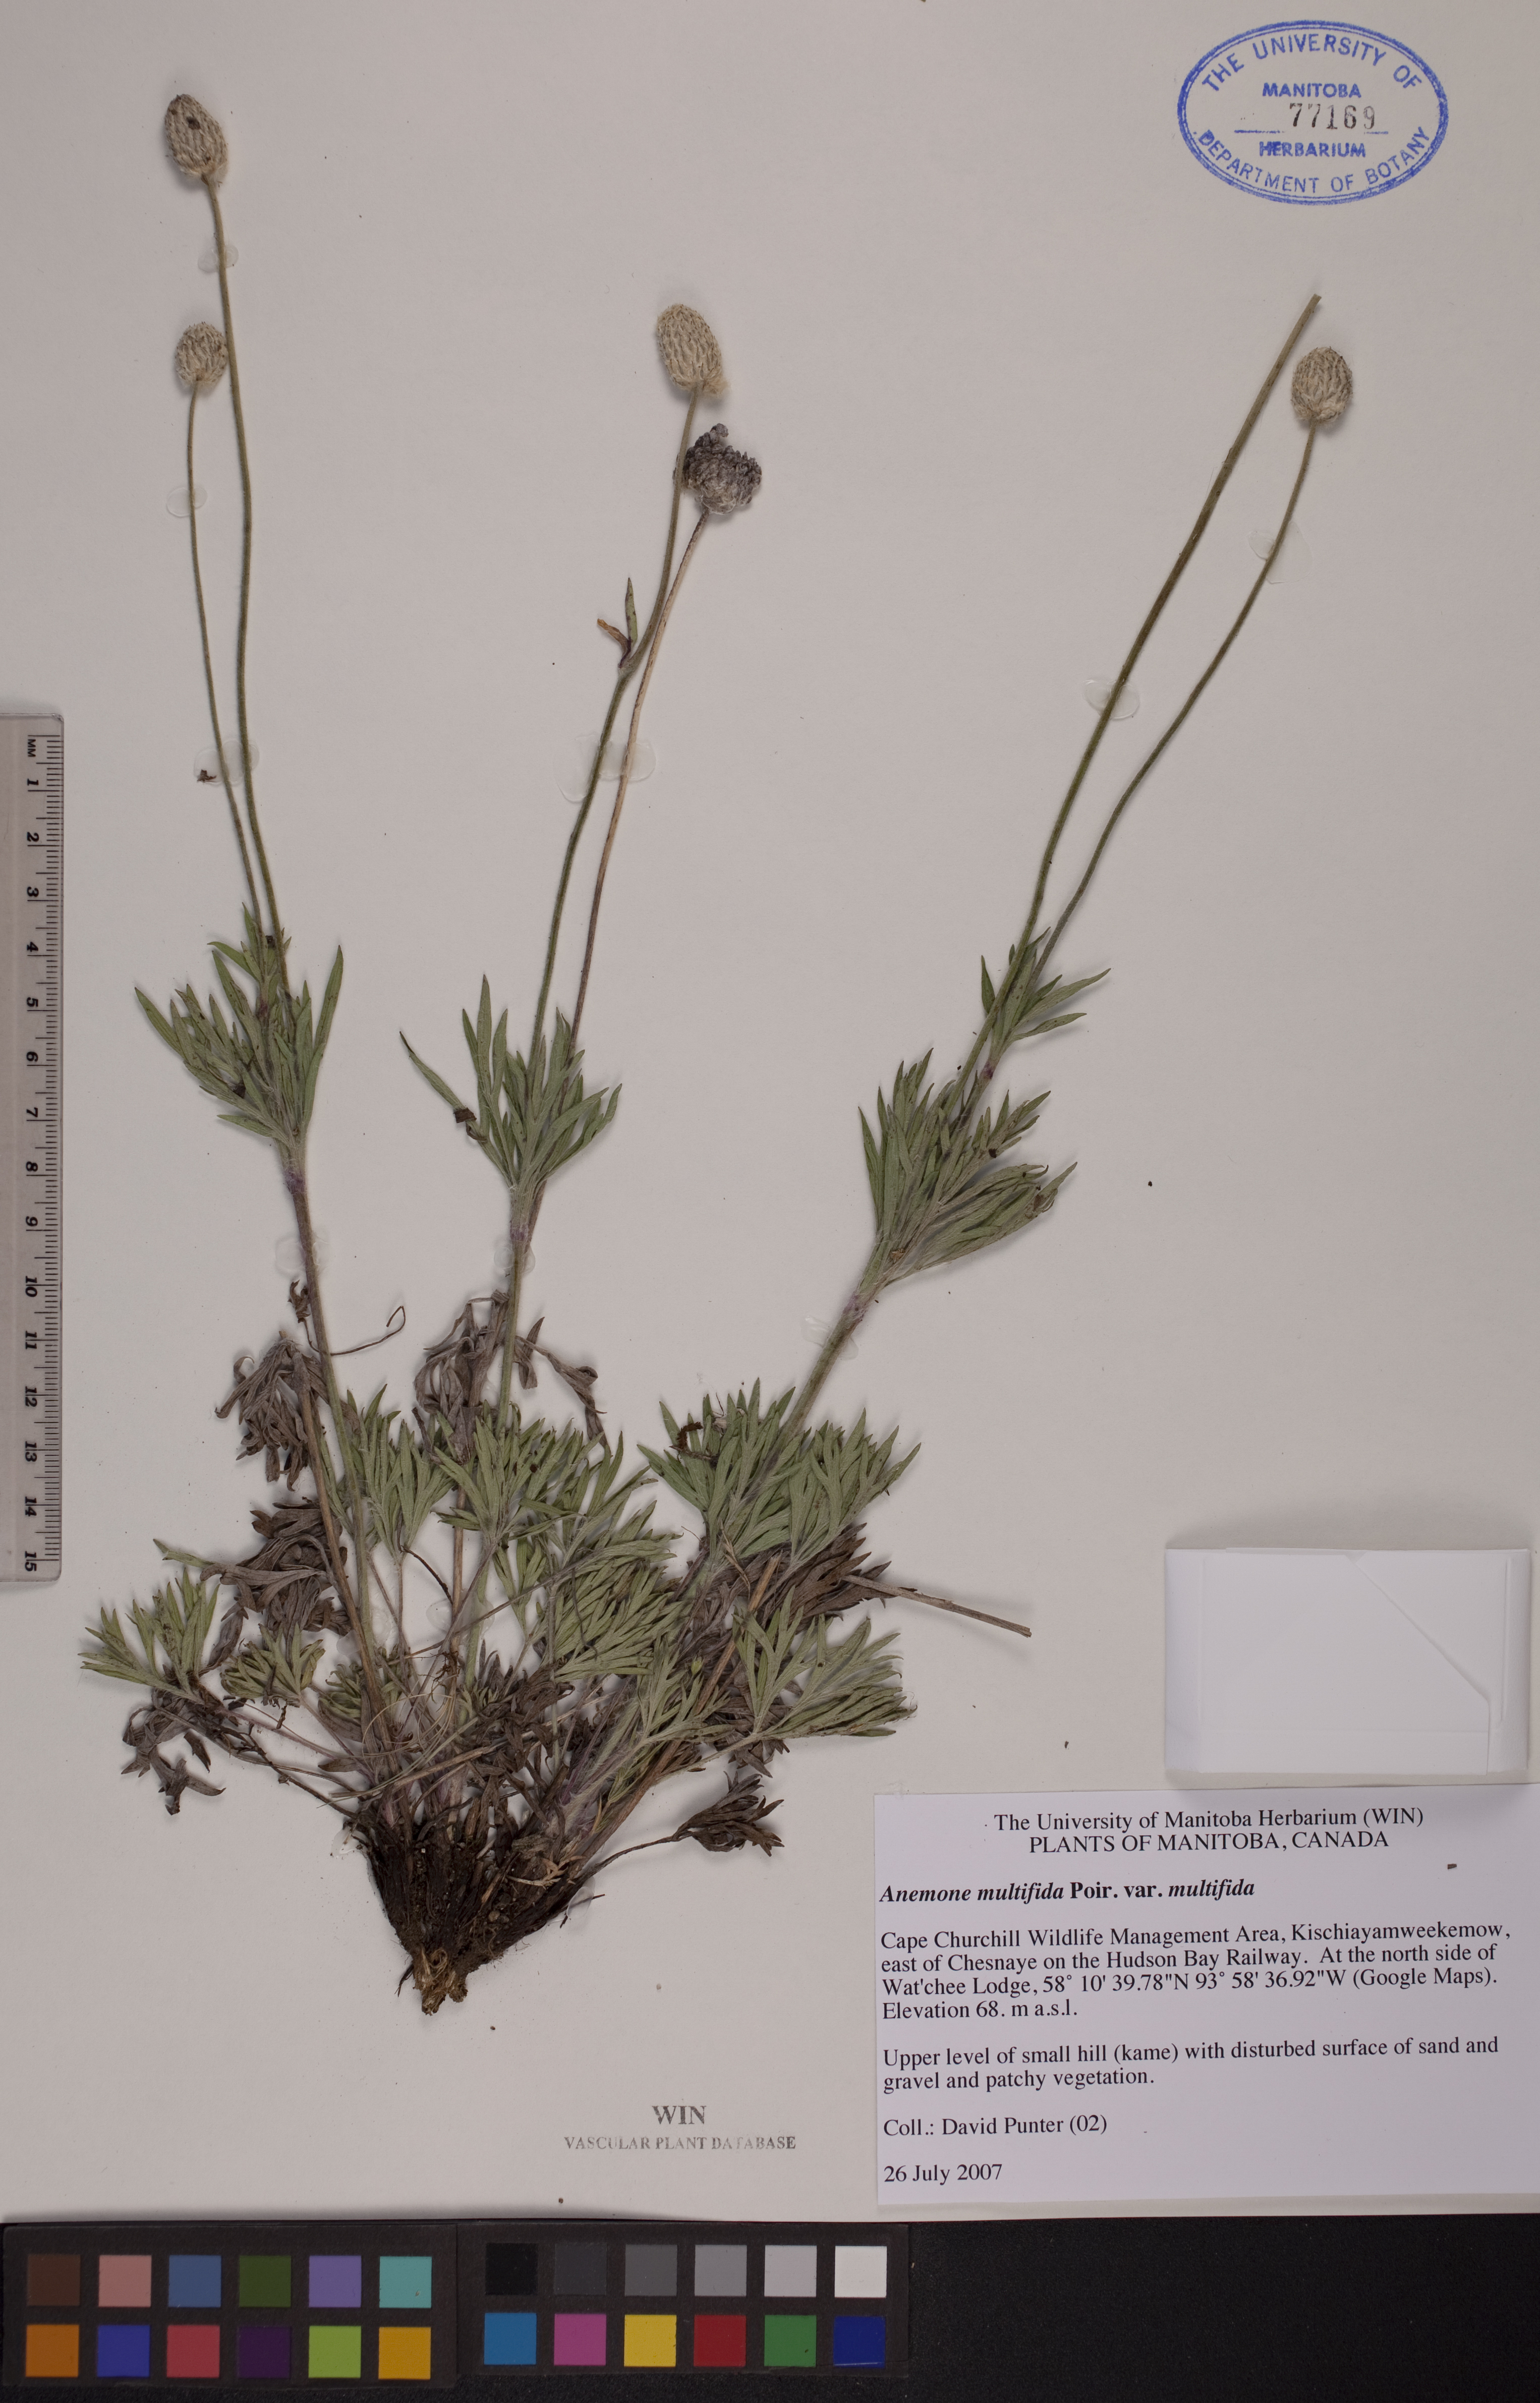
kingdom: Plantae
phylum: Tracheophyta
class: Magnoliopsida
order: Ranunculales
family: Ranunculaceae
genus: Anemone
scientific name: Anemone multifida
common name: Bird's-foot anemone
